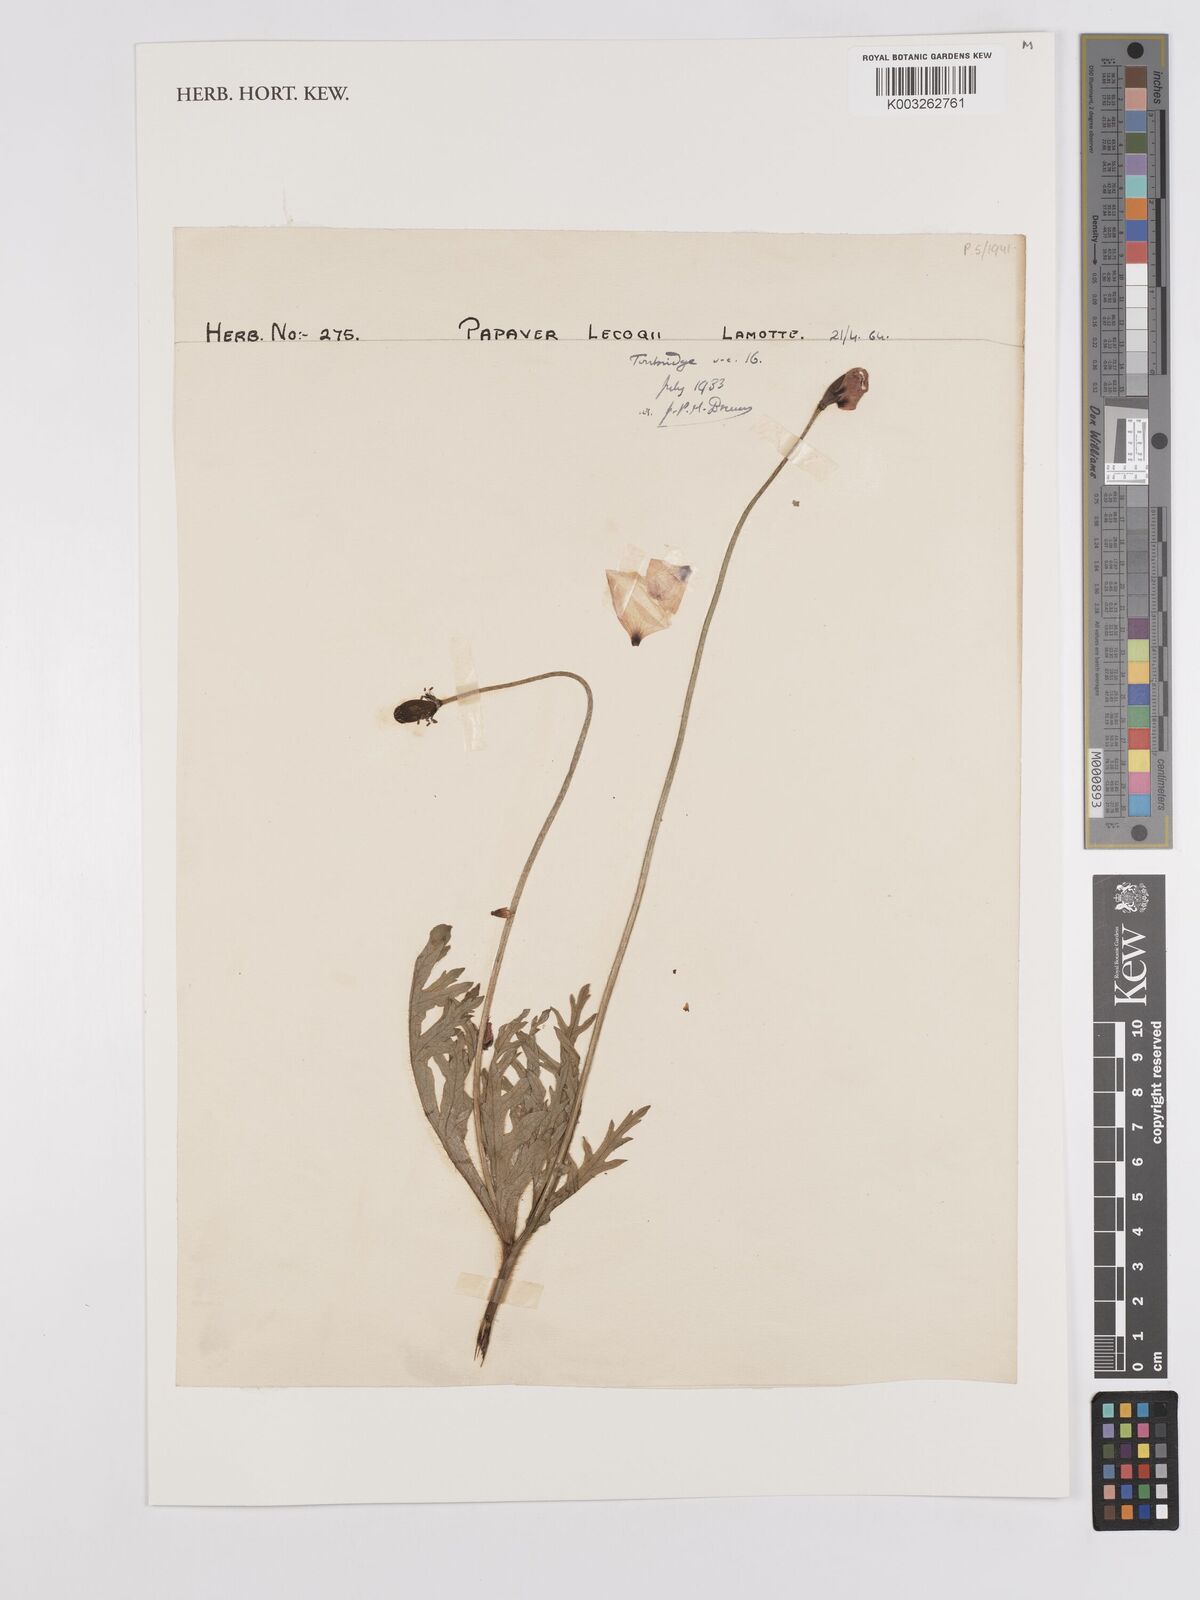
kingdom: Plantae
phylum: Tracheophyta
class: Magnoliopsida
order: Ranunculales
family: Papaveraceae
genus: Papaver
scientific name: Papaver lecoqii
